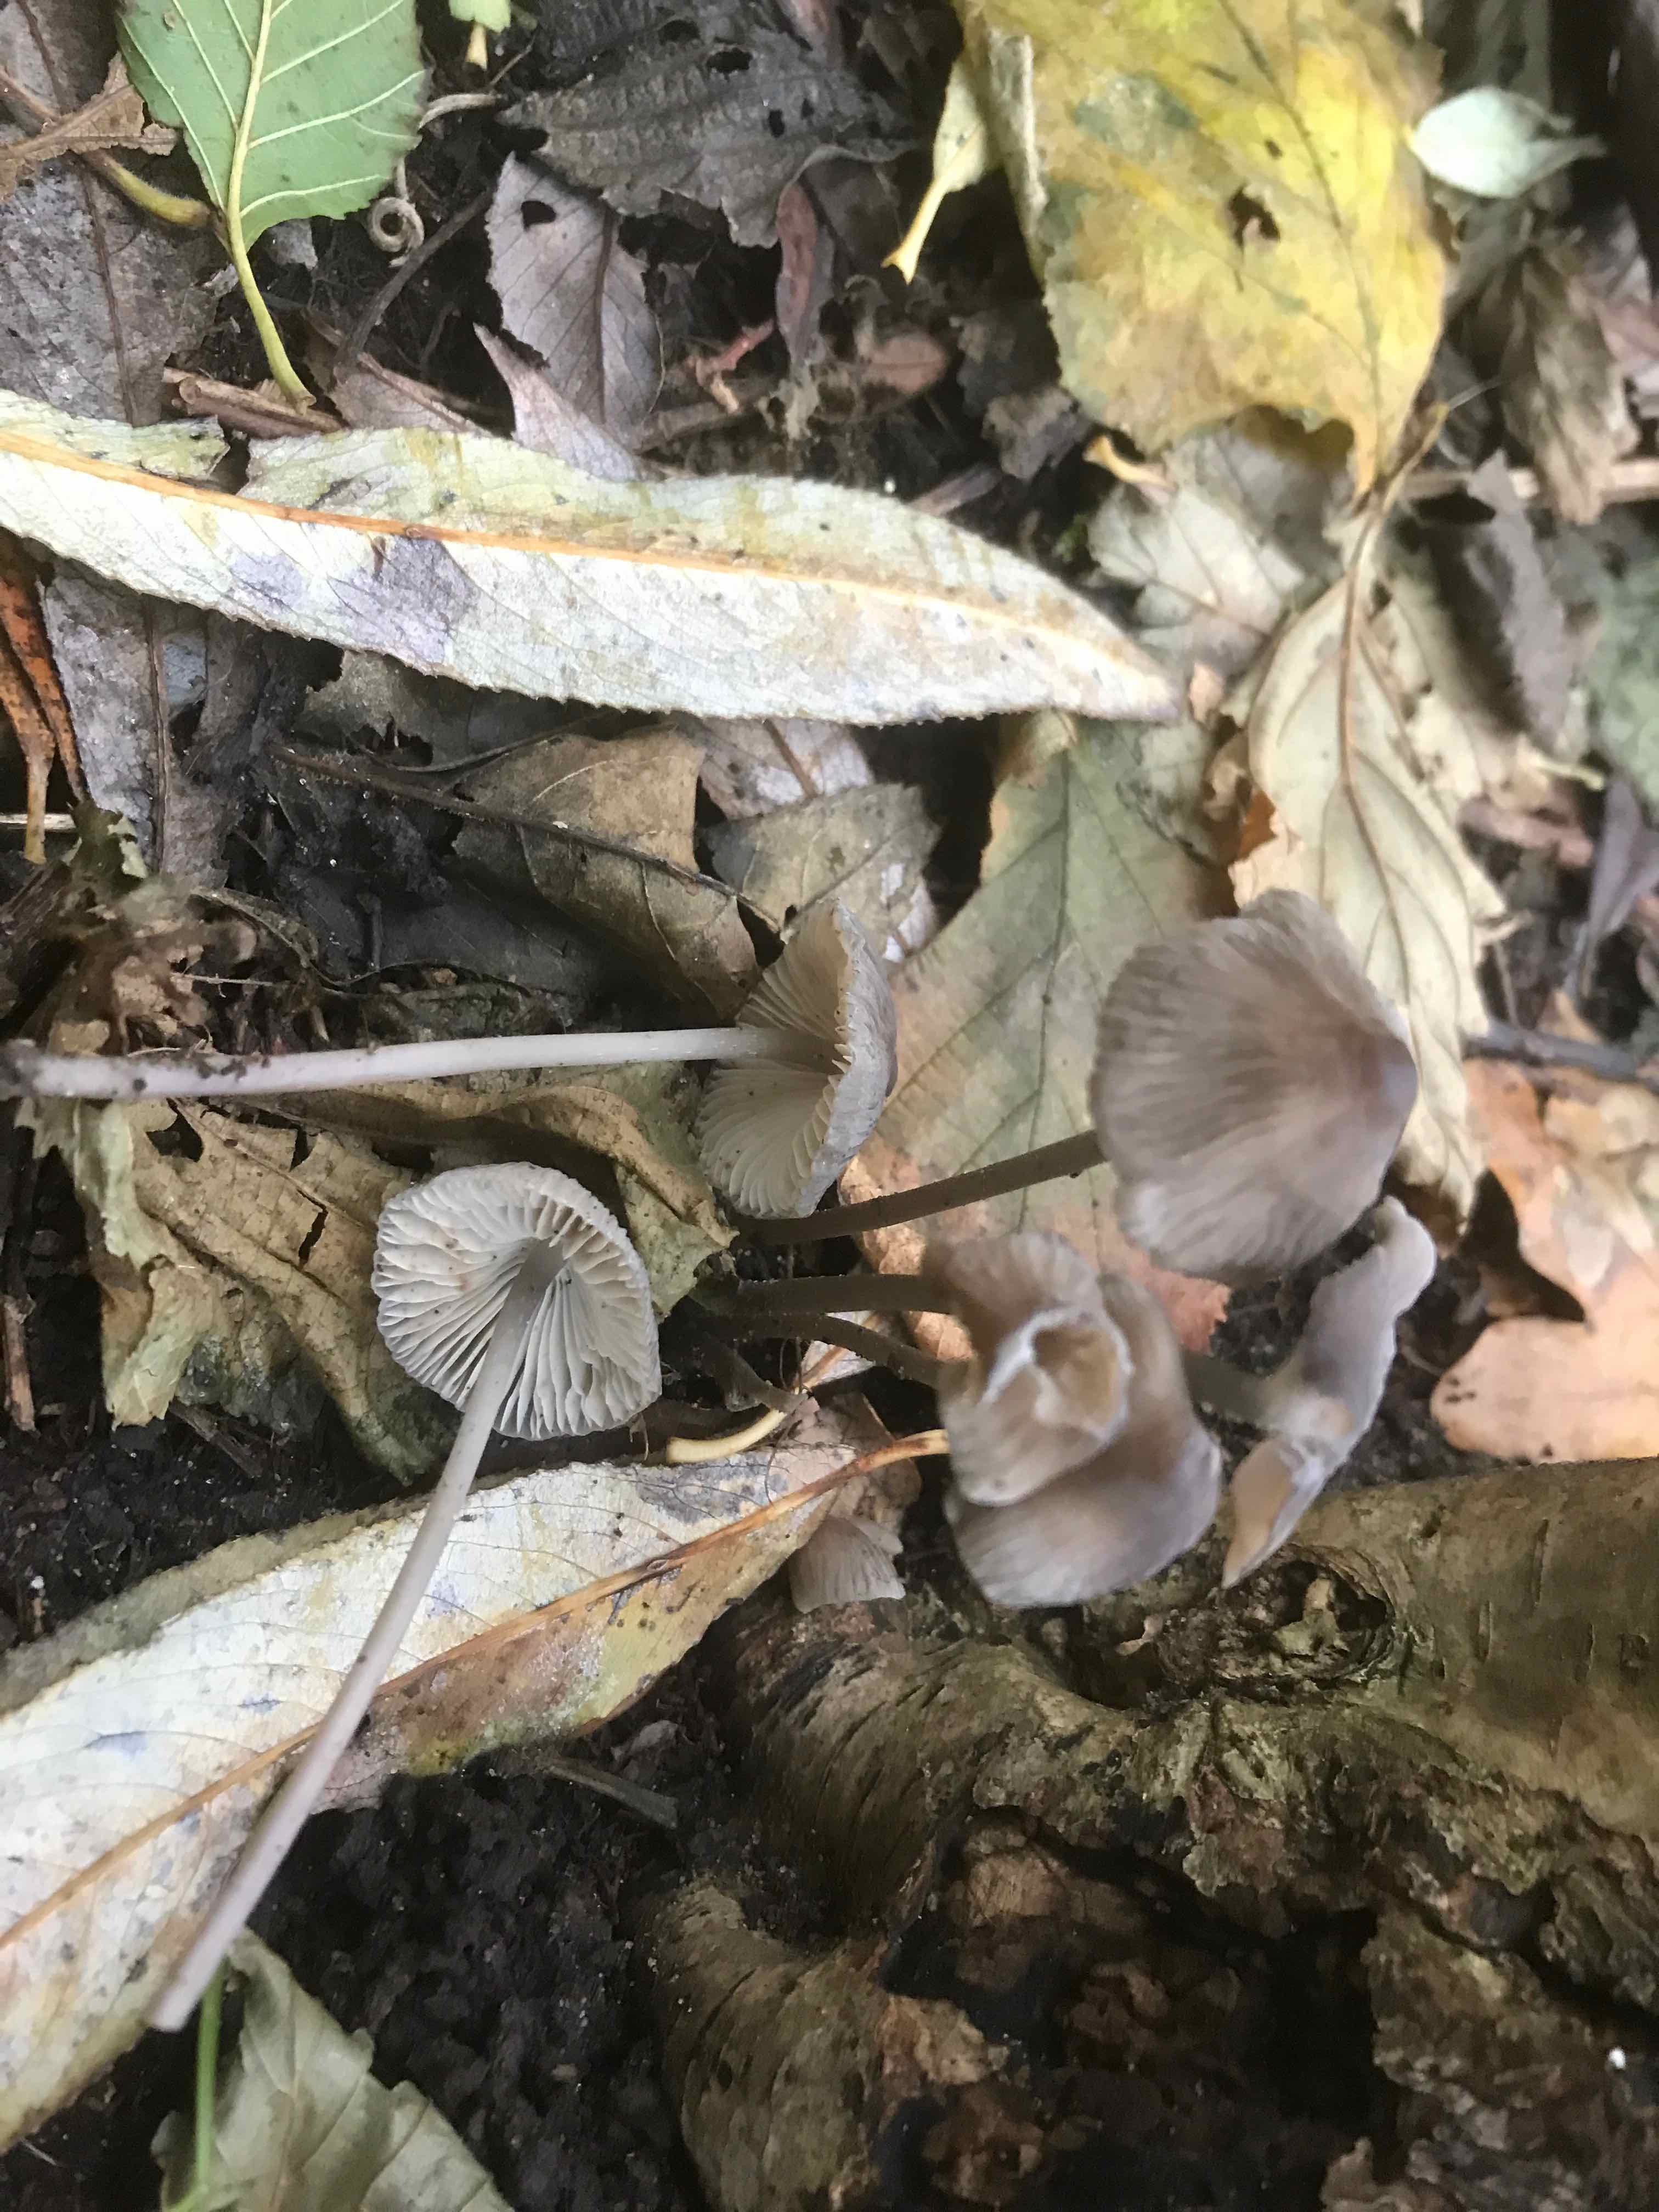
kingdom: Fungi
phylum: Basidiomycota
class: Agaricomycetes
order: Agaricales
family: Mycenaceae
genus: Mycena
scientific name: Mycena polygramma
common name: mangestribet huesvamp
